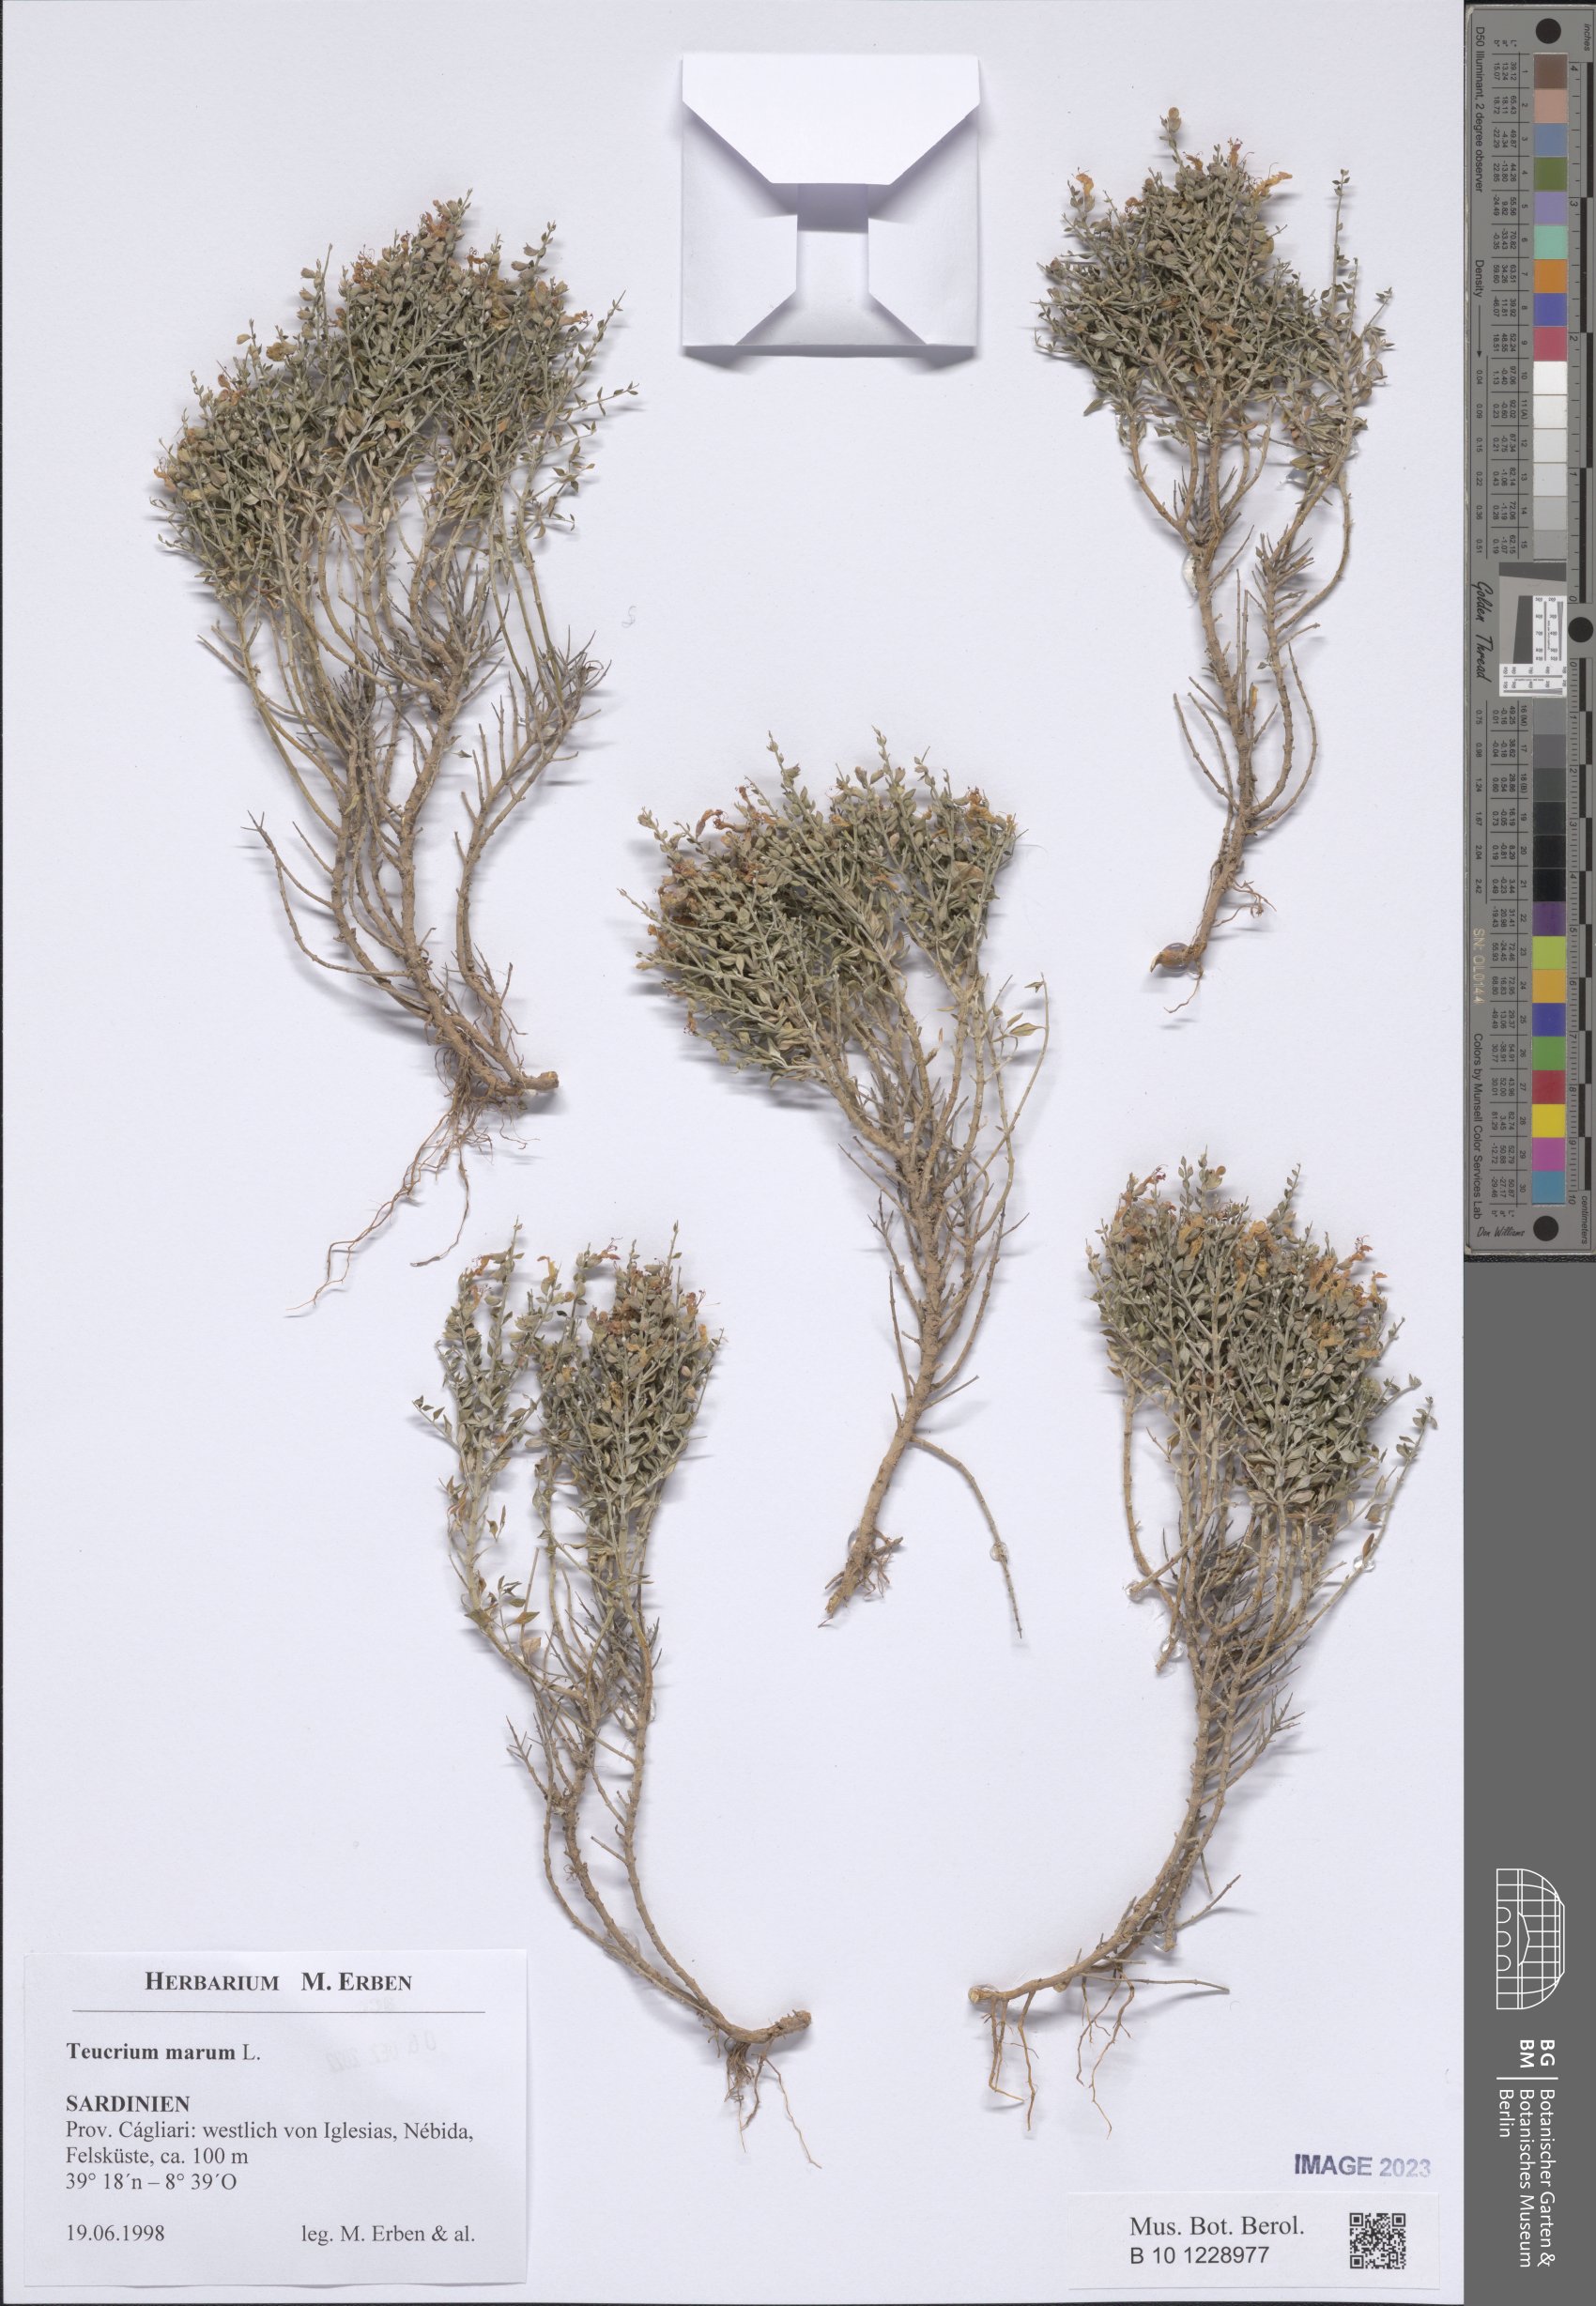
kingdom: Plantae
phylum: Tracheophyta
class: Magnoliopsida
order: Lamiales
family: Lamiaceae
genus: Teucrium
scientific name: Teucrium marum
